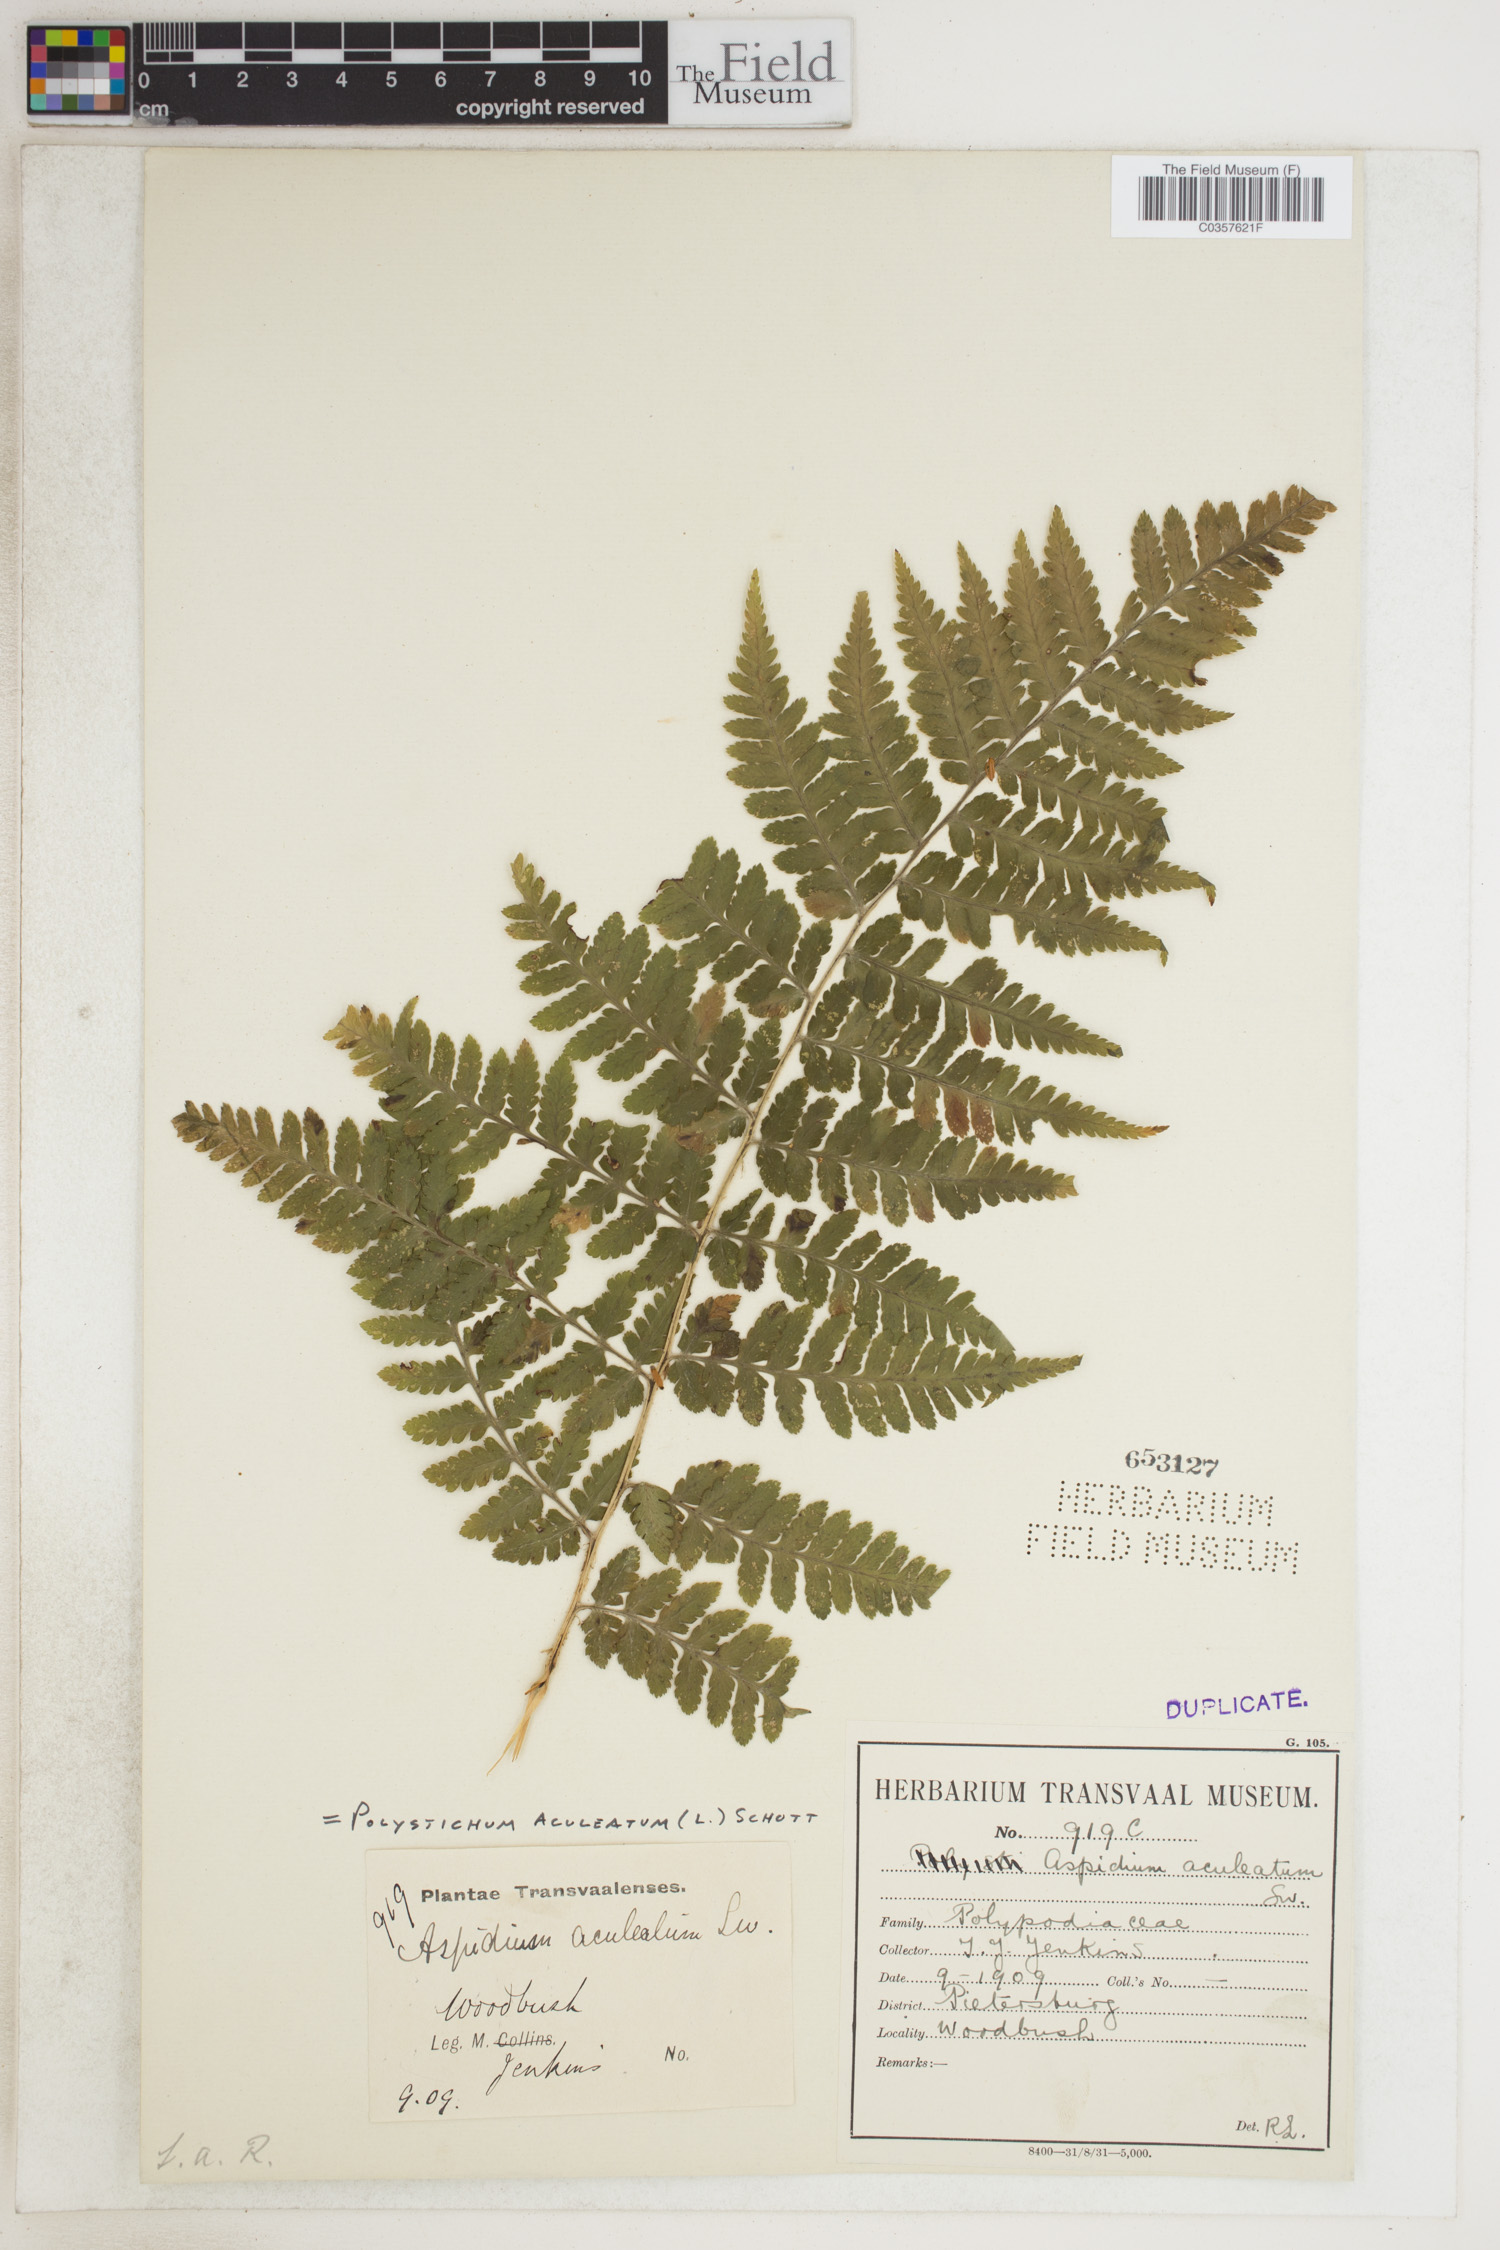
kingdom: Plantae
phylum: Tracheophyta
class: Polypodiopsida
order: Polypodiales
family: Dryopteridaceae
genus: Polystichum
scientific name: Polystichum aculeatum
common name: Hard shield-fern
